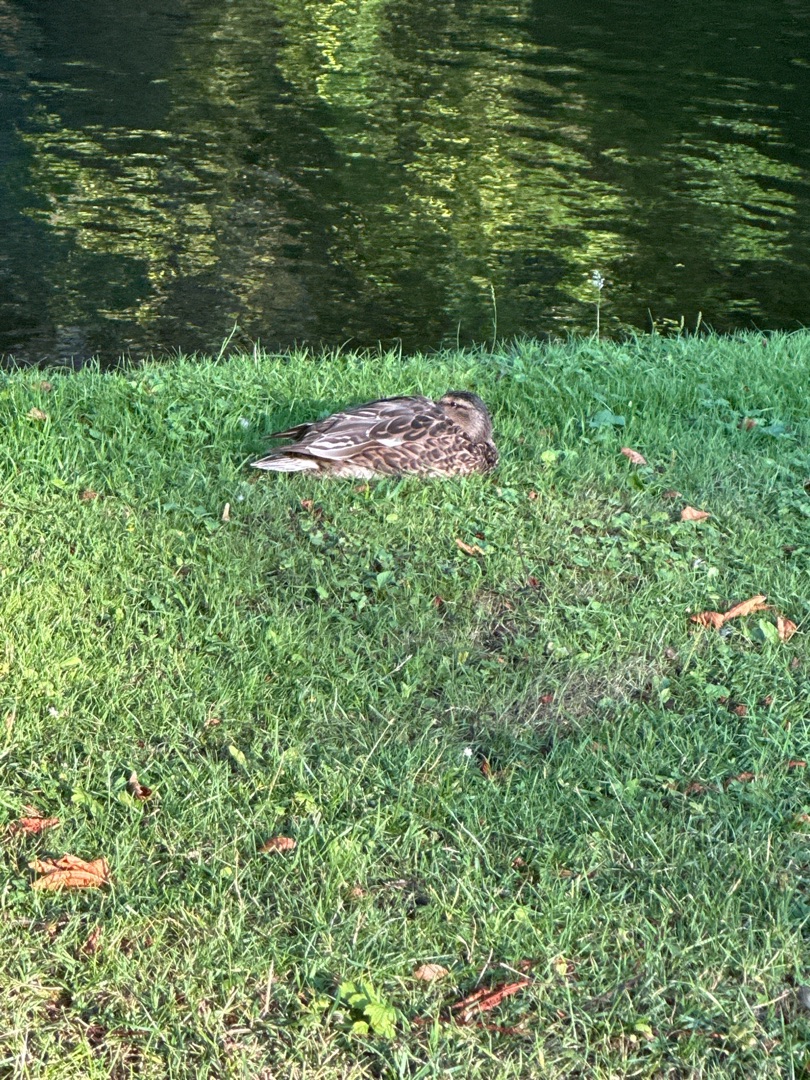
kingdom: Animalia
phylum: Chordata
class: Aves
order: Anseriformes
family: Anatidae
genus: Anas
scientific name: Anas platyrhynchos
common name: Gråand
